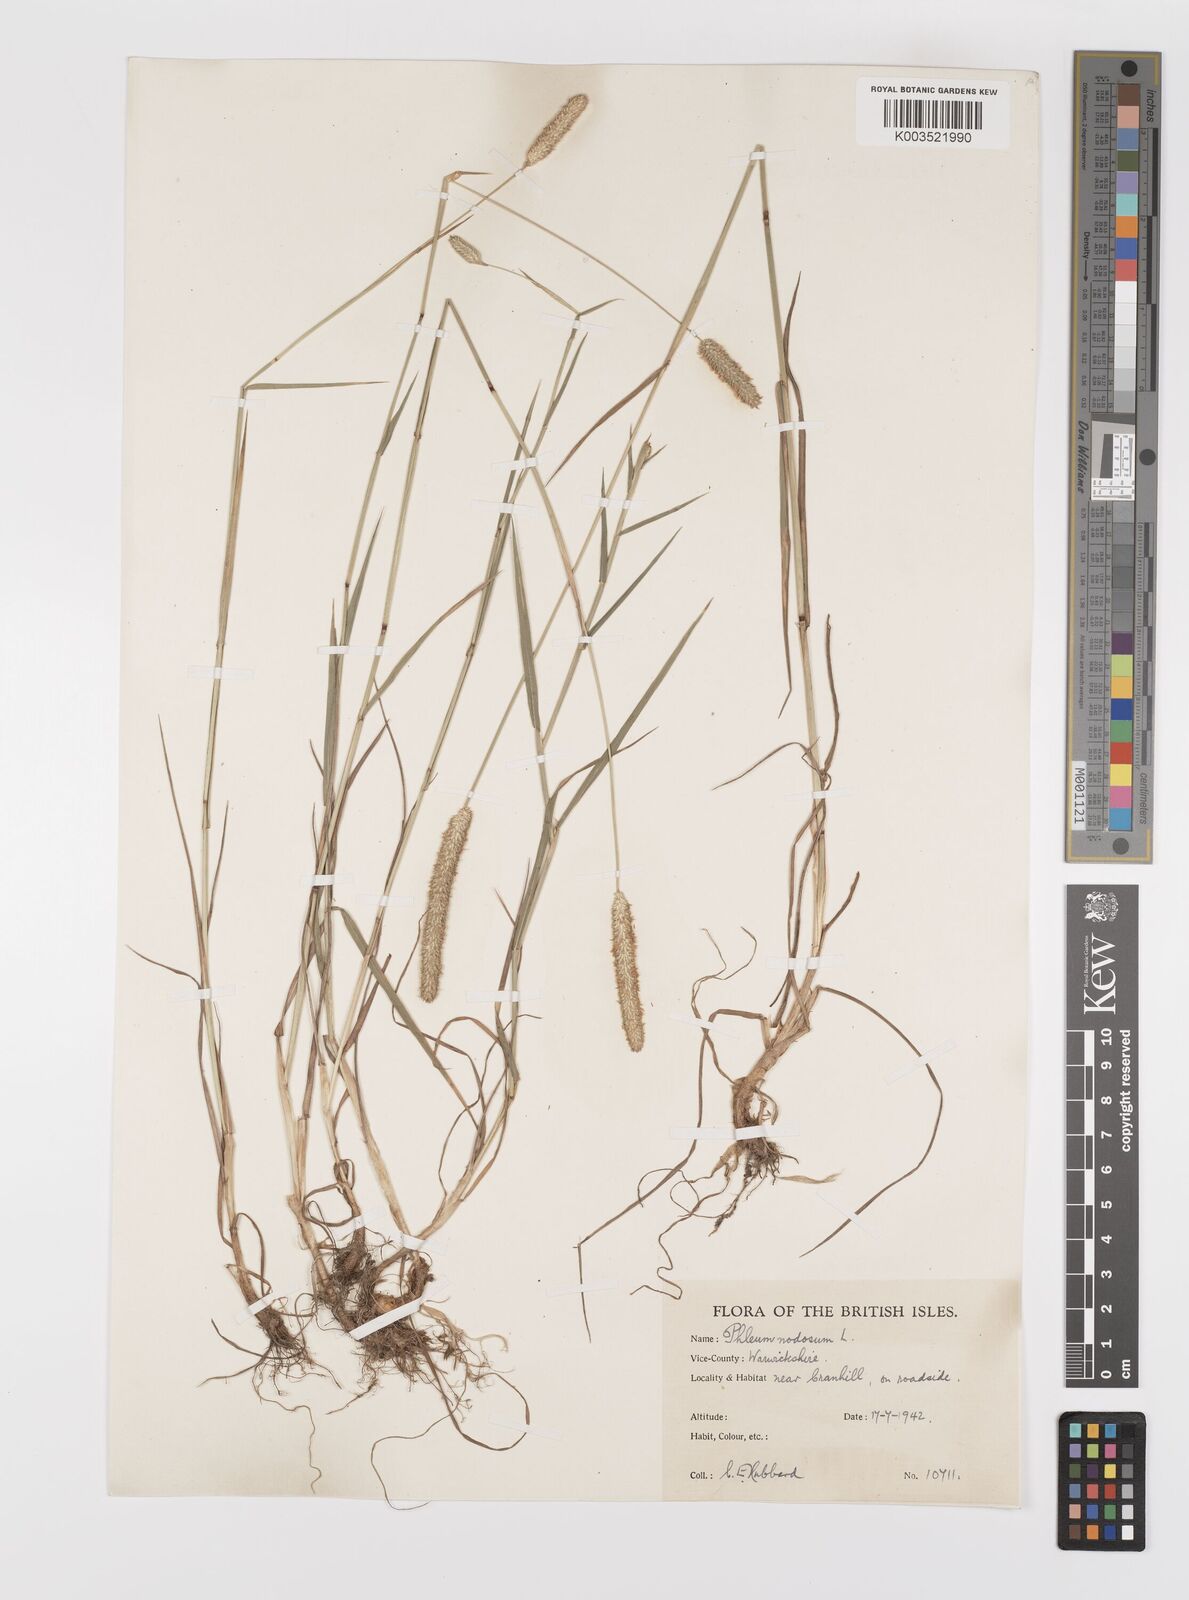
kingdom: Plantae
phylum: Tracheophyta
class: Liliopsida
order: Poales
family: Poaceae
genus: Phleum
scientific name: Phleum bertolonii
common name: Smaller cat's-tail
